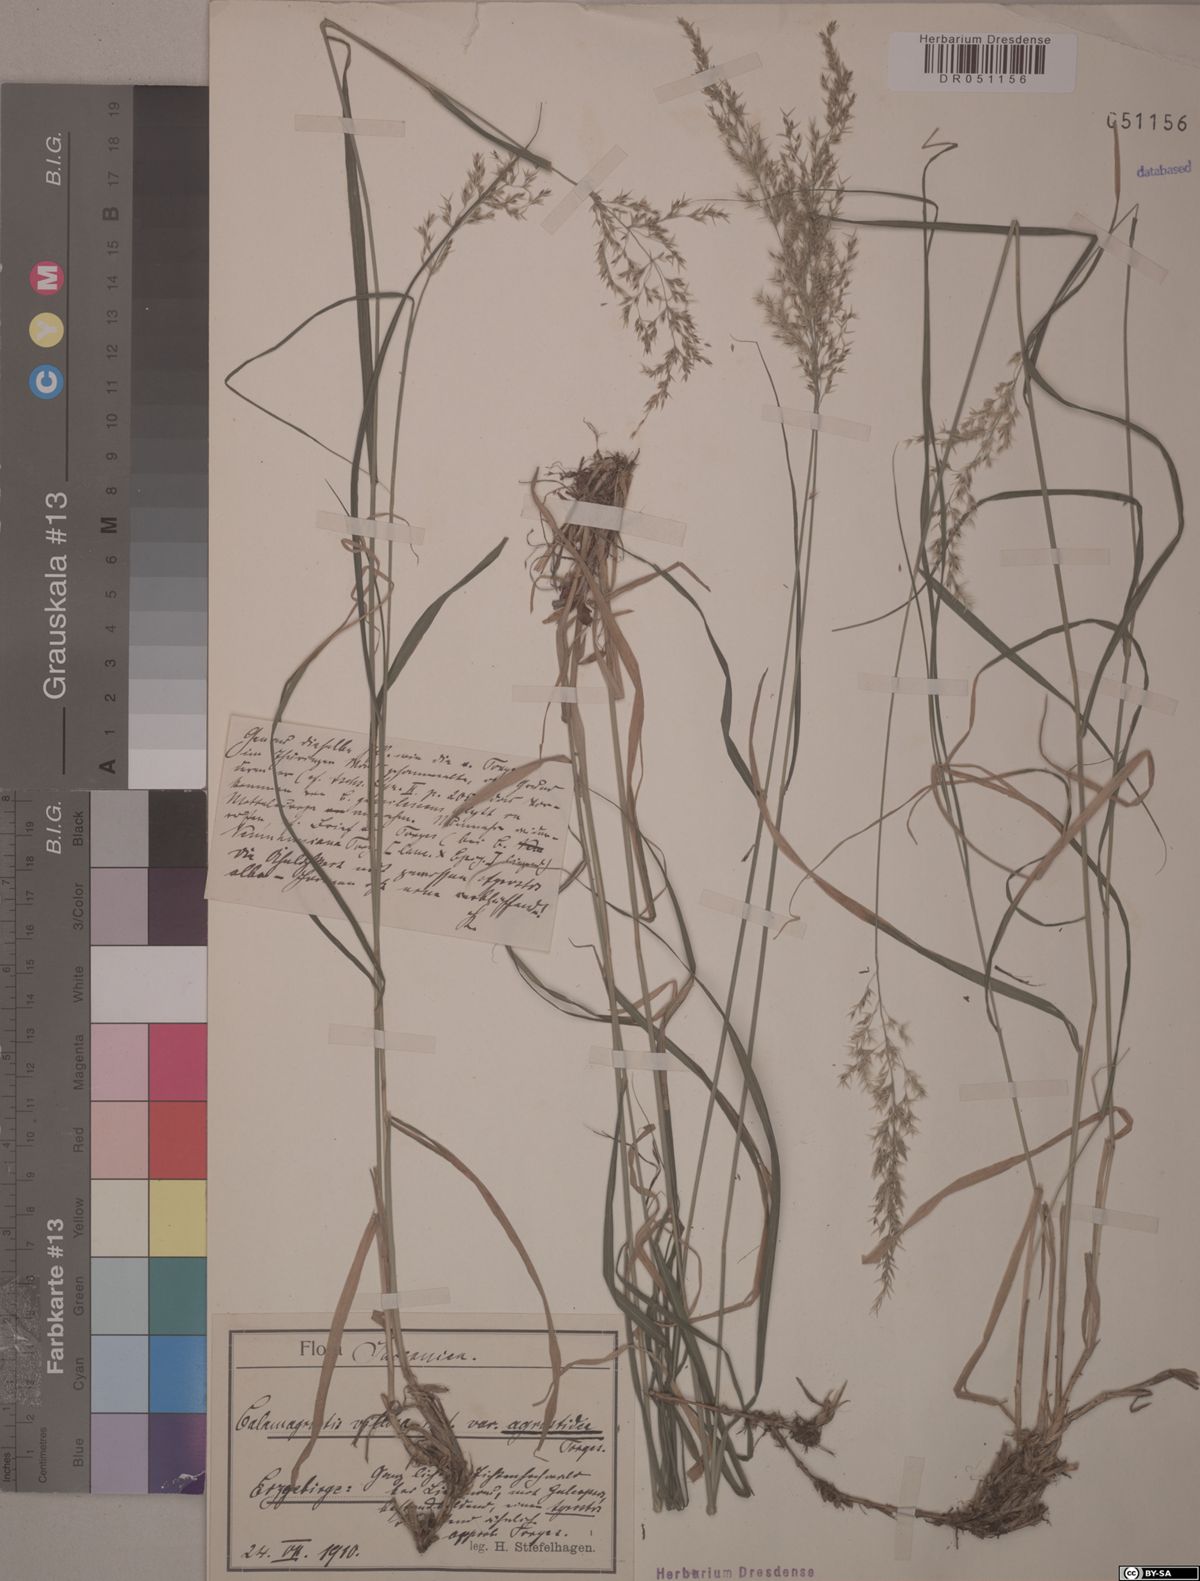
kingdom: Plantae
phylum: Tracheophyta
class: Liliopsida
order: Poales
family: Poaceae
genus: Calamagrostis
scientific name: Calamagrostis villosa
